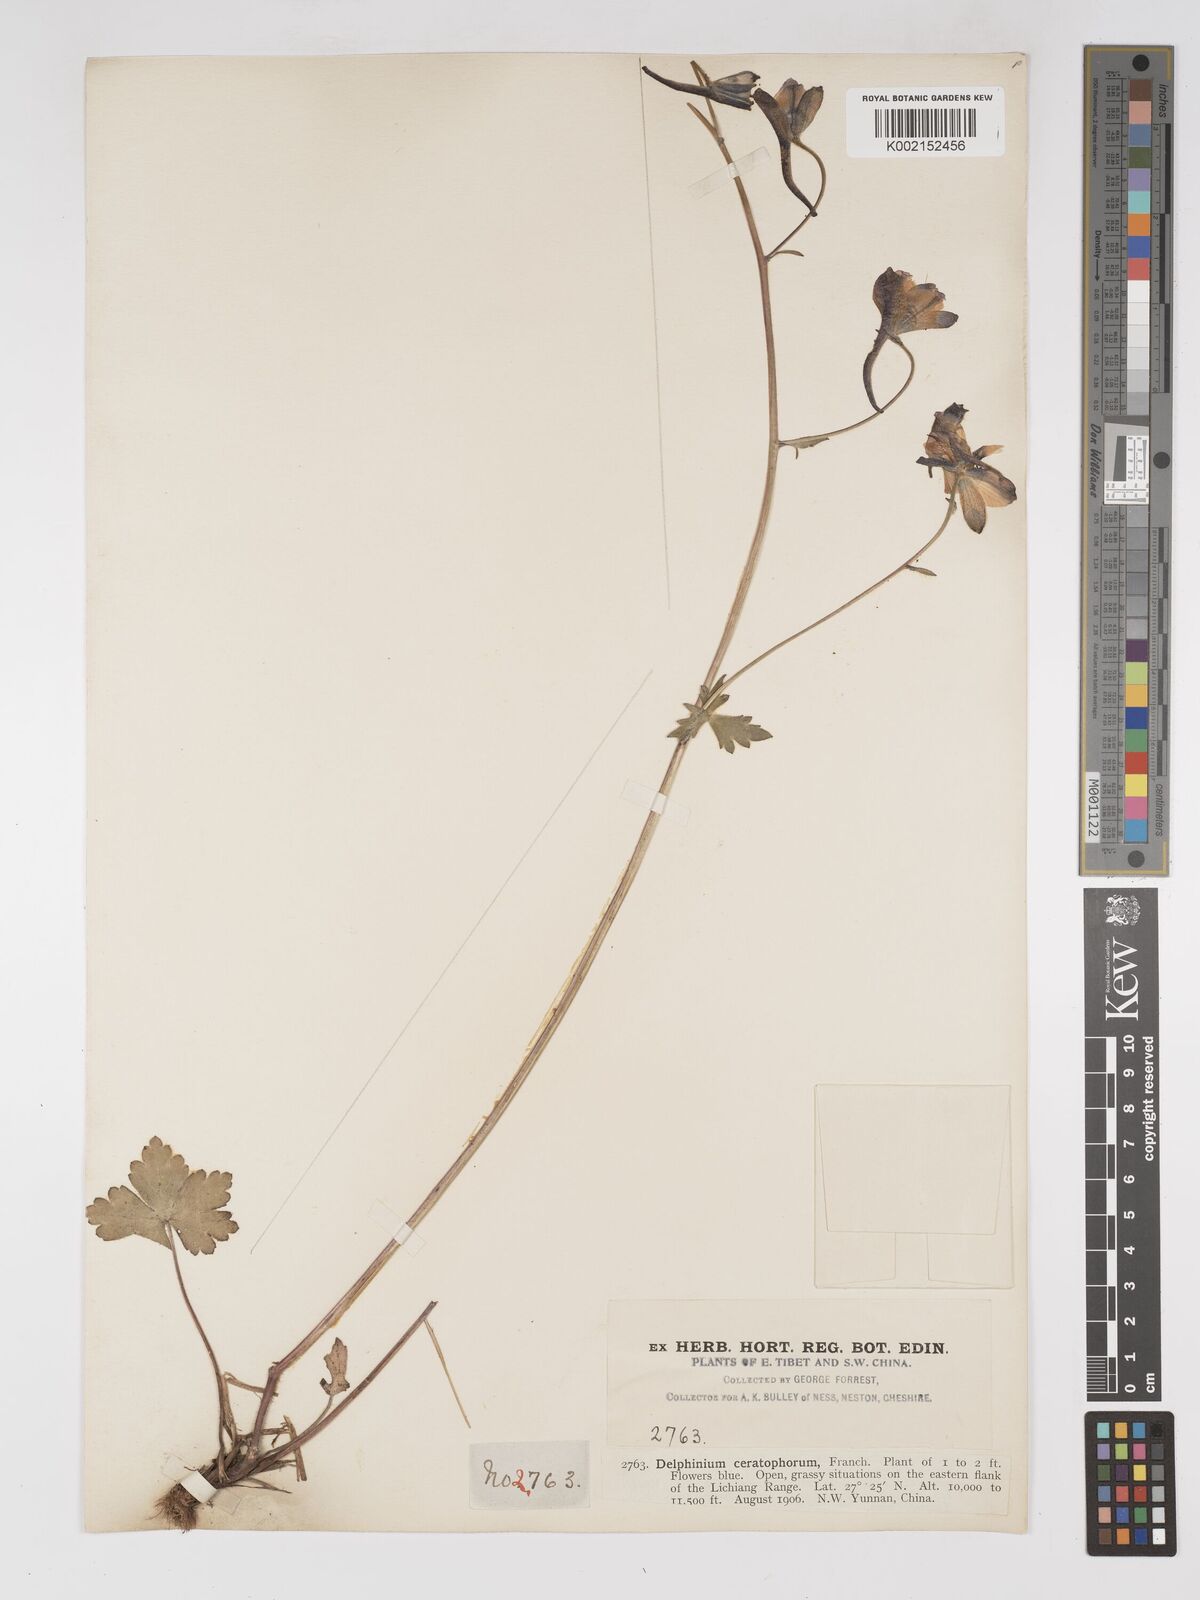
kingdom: Plantae
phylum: Tracheophyta
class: Magnoliopsida
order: Ranunculales
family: Ranunculaceae
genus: Delphinium
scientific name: Delphinium ceratophorum
